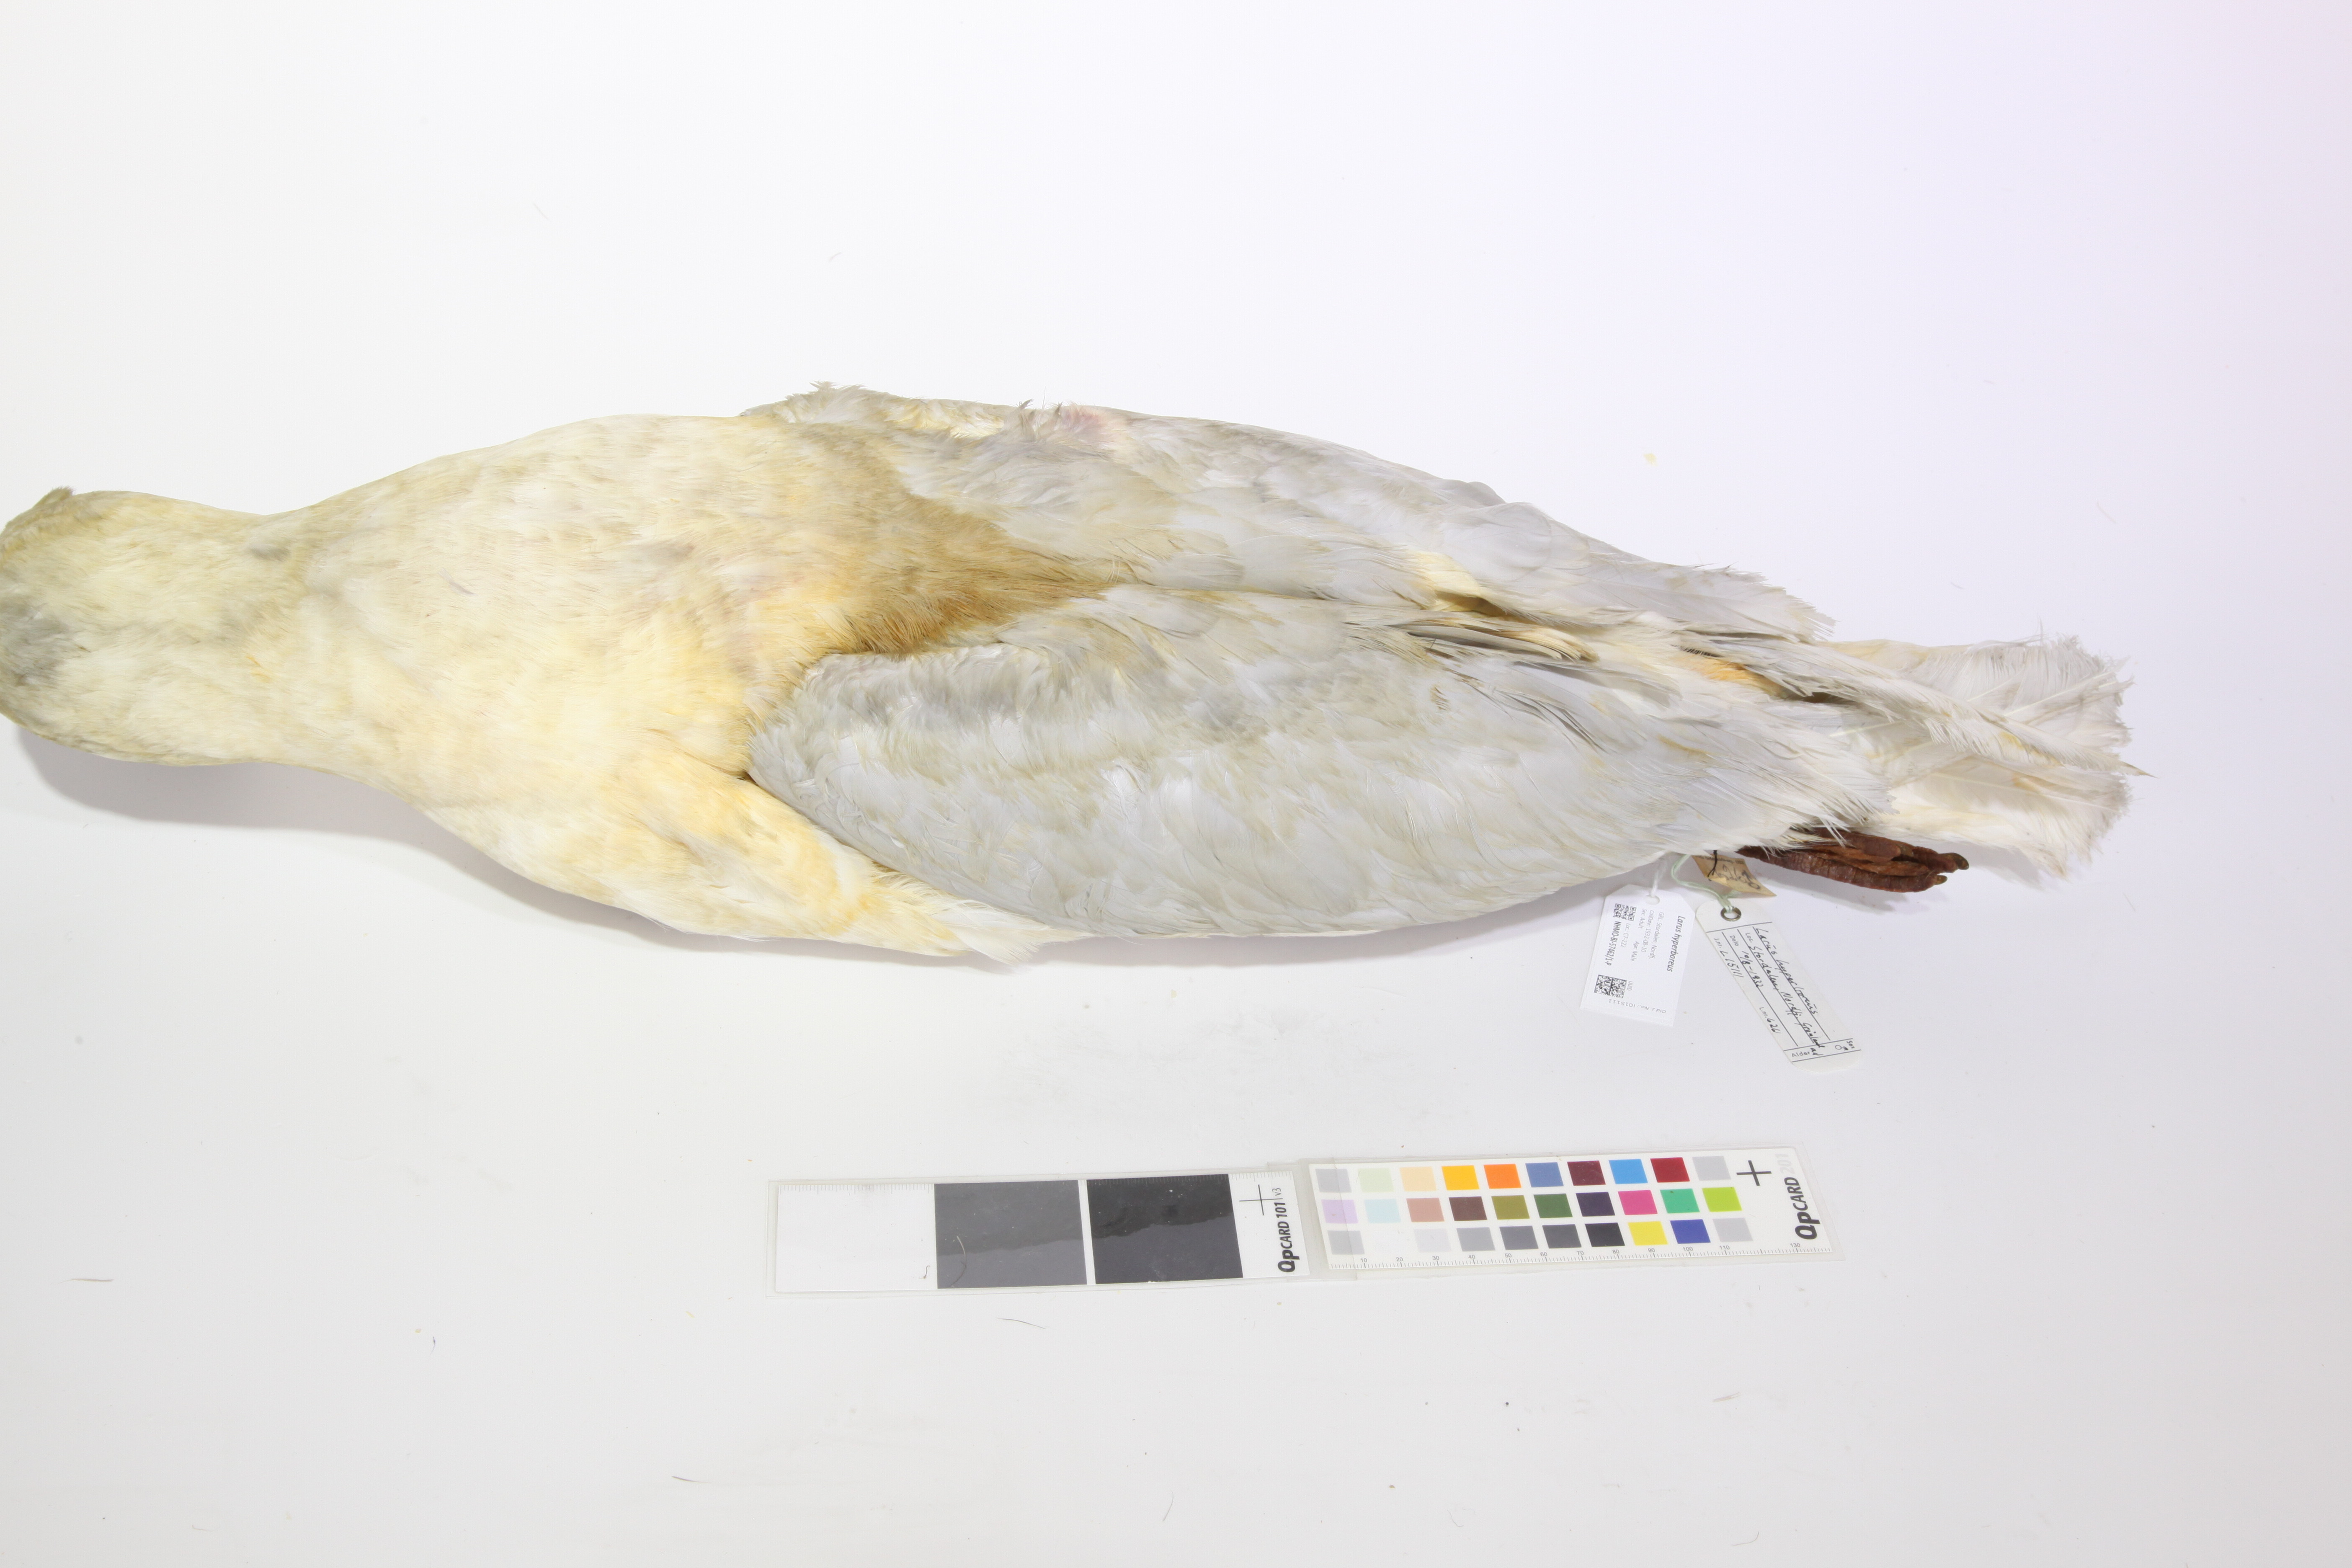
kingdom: Animalia
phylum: Chordata
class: Aves
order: Charadriiformes
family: Laridae
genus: Larus
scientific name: Larus hyperboreus
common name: Glaucous gull
